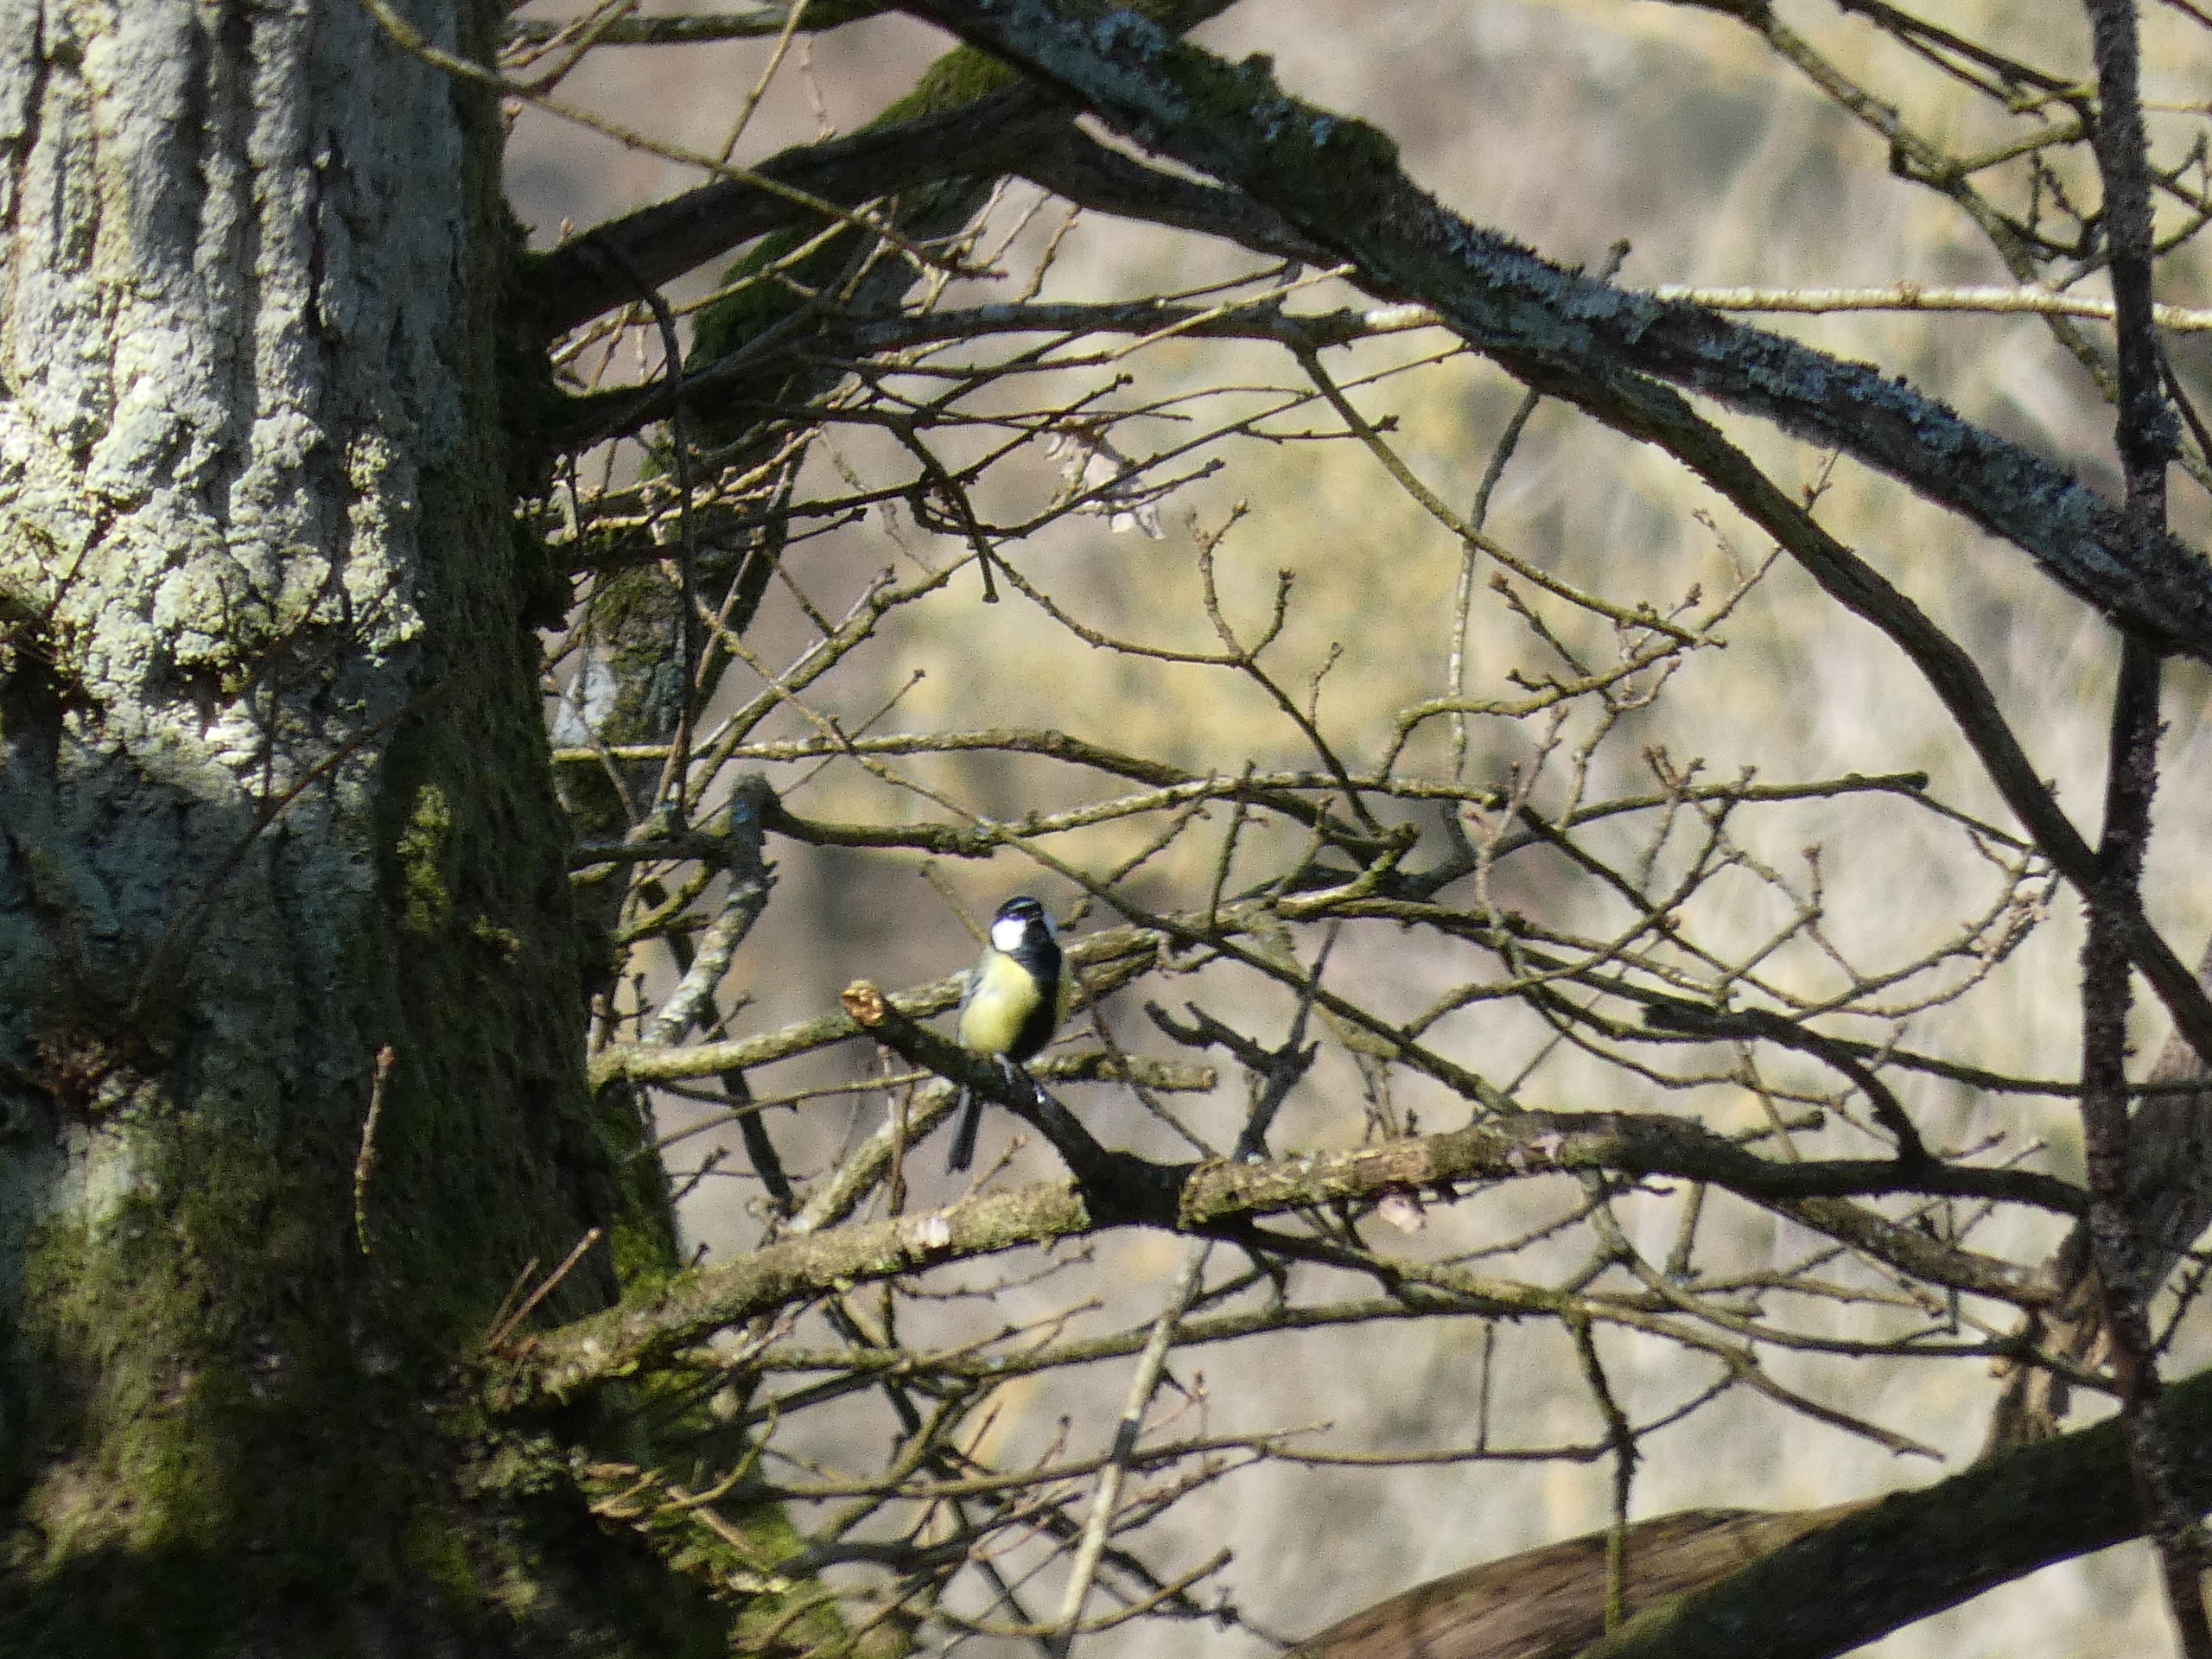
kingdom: Animalia
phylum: Chordata
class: Aves
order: Passeriformes
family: Paridae
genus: Parus
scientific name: Parus major
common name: Musvit
